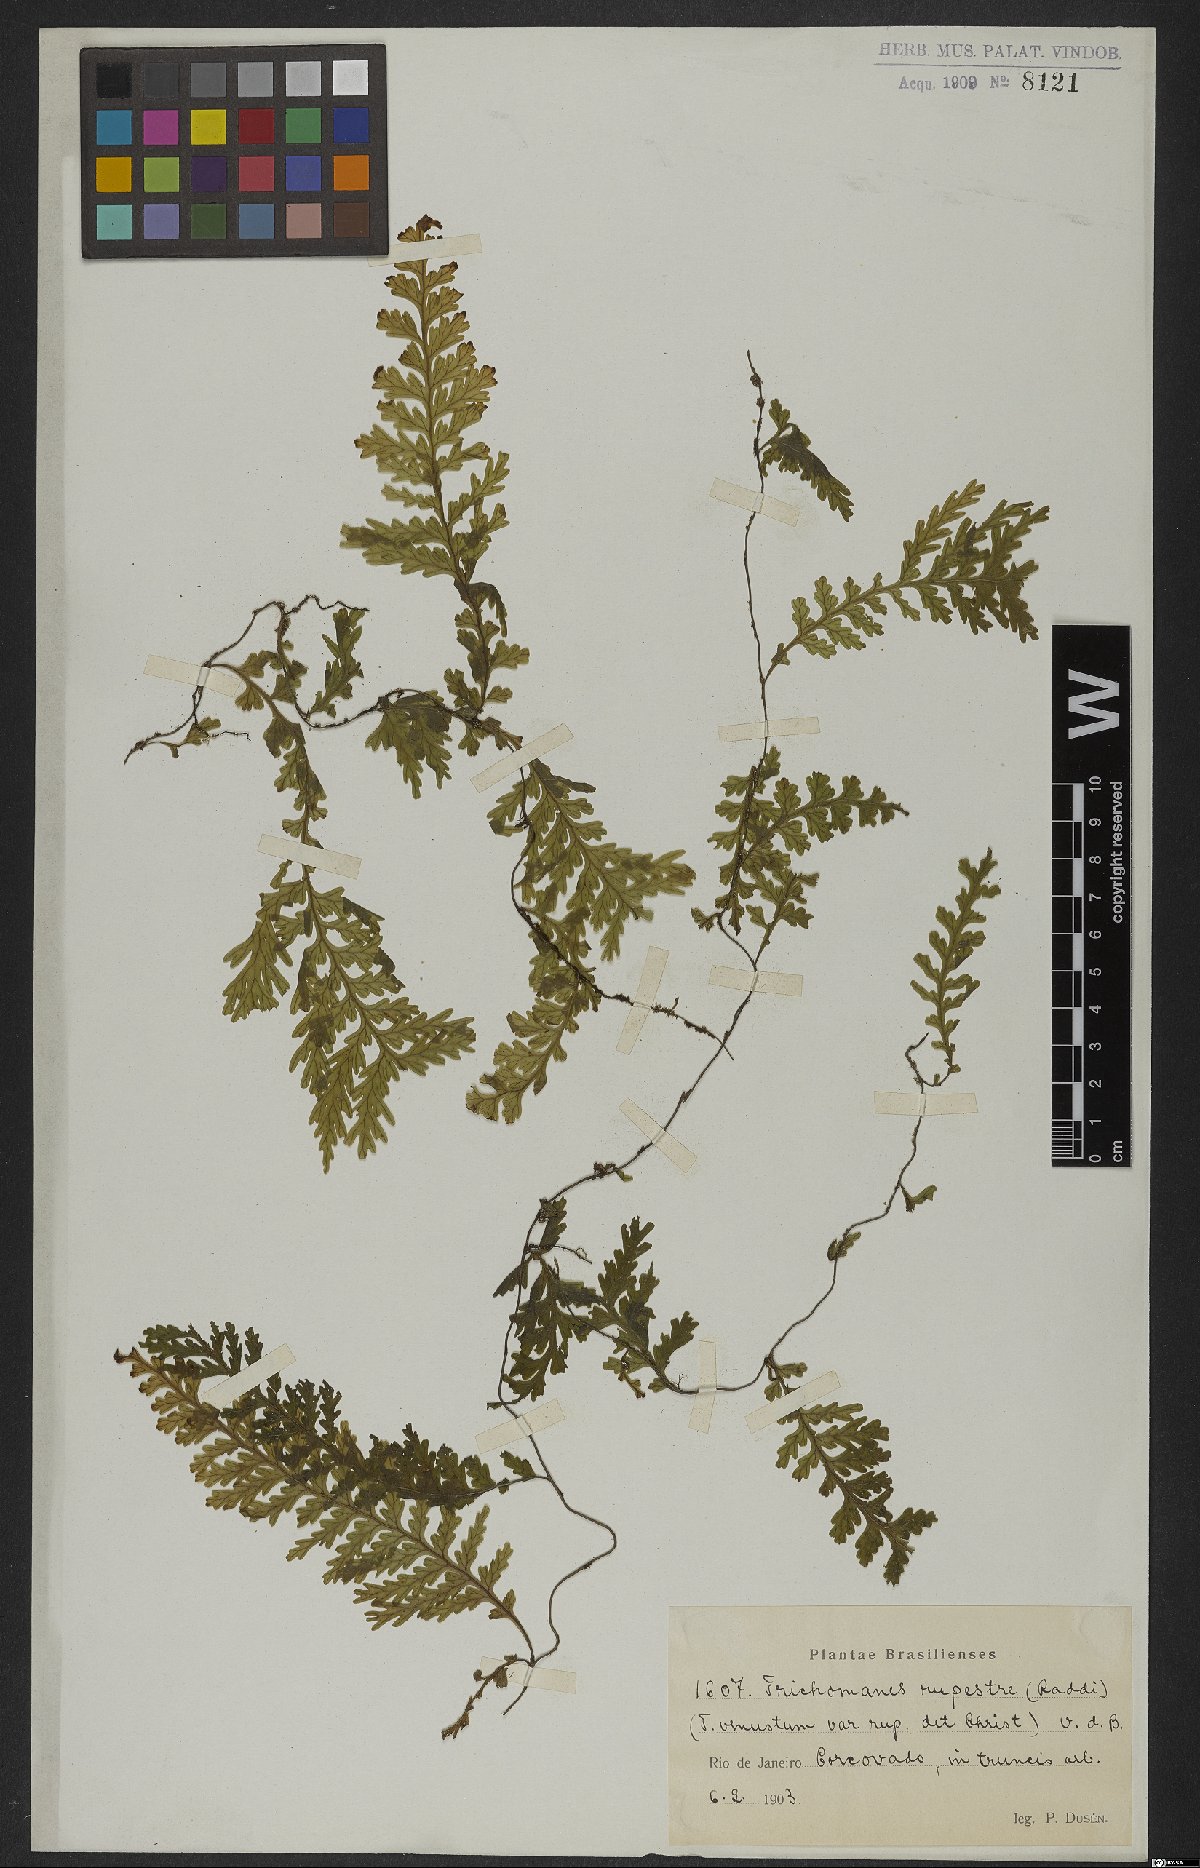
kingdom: Plantae
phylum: Tracheophyta
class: Polypodiopsida
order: Hymenophyllales
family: Hymenophyllaceae
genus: Vandenboschia
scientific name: Vandenboschia rupestris
